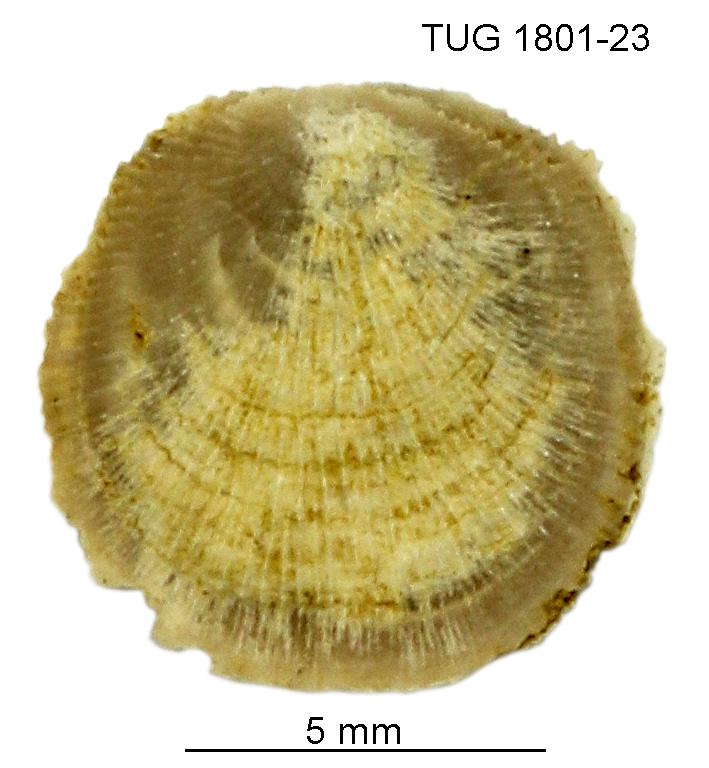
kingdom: Animalia
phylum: Brachiopoda
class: Craniata
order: Craniida
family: Craniidae
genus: Orthisocrania
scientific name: Orthisocrania
